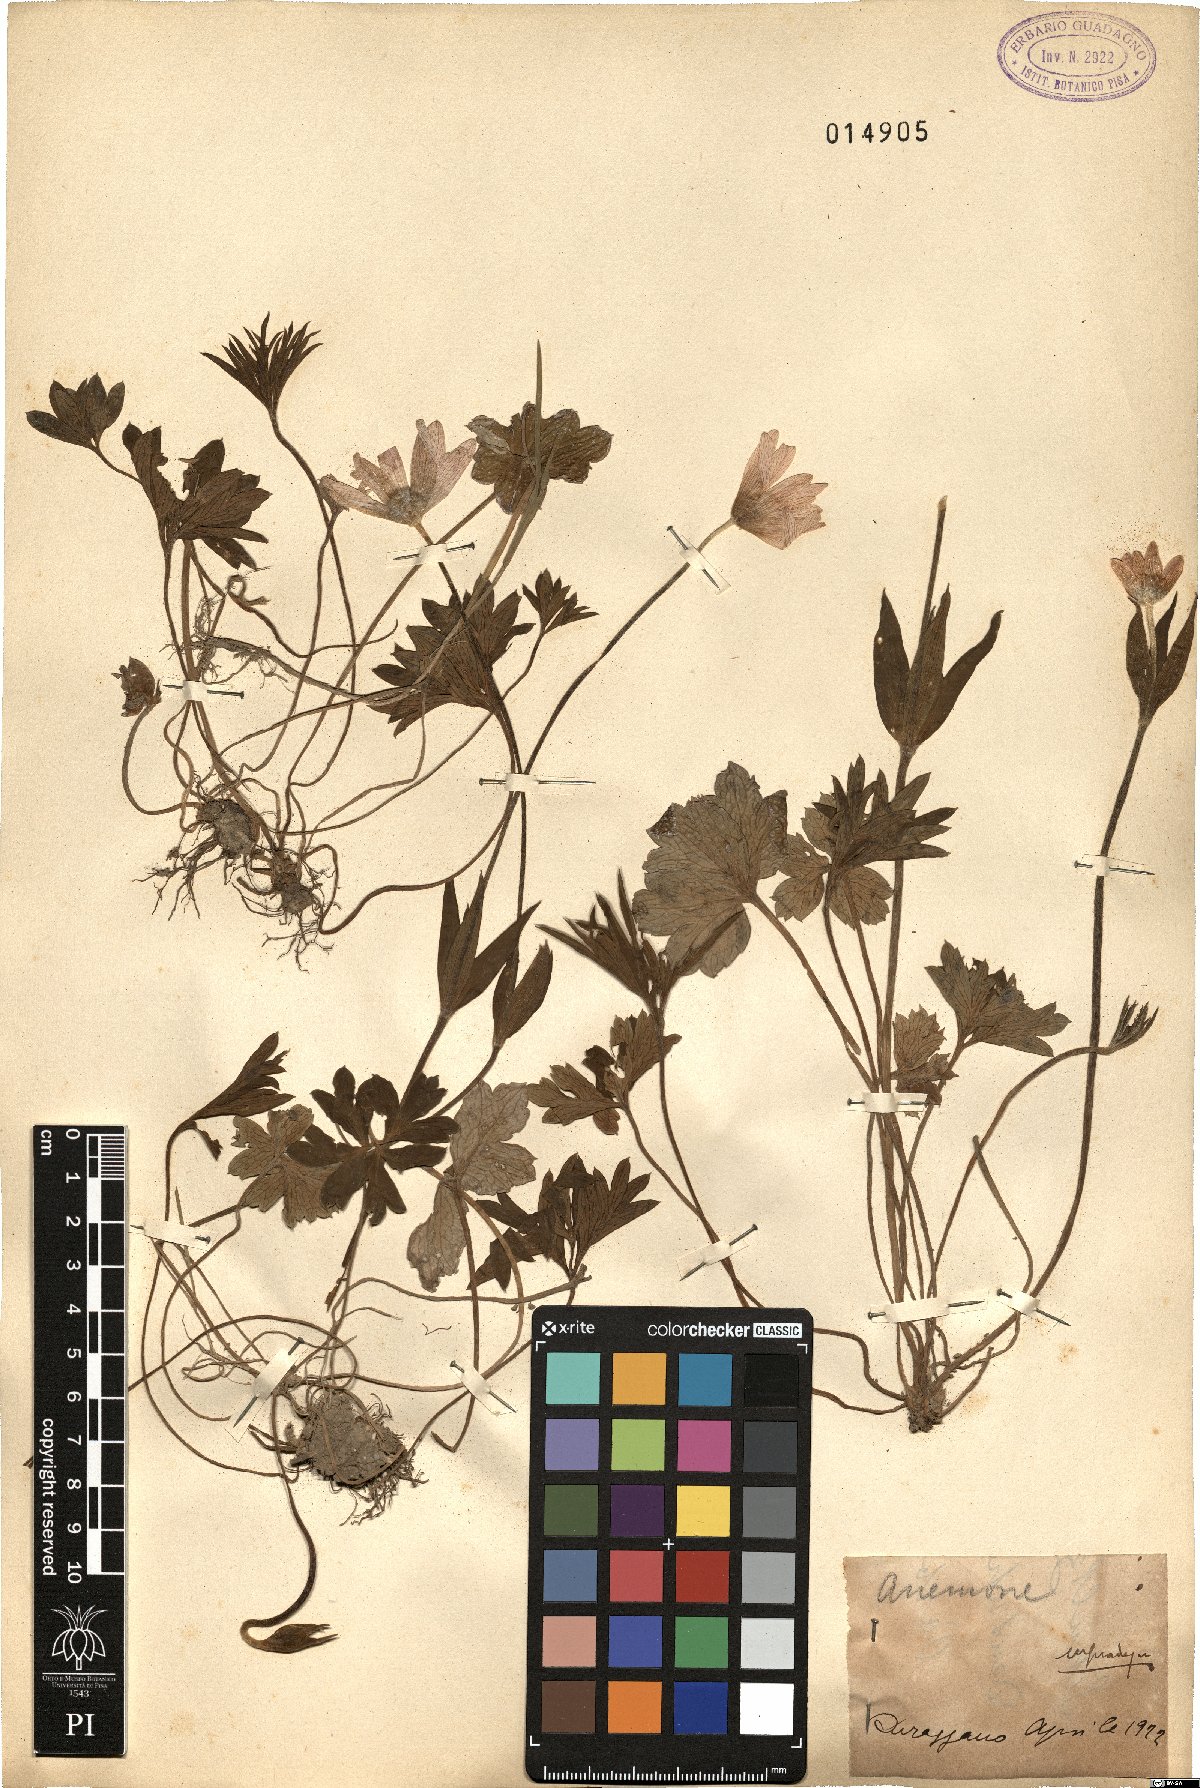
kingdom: Plantae
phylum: Tracheophyta
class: Magnoliopsida
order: Ranunculales
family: Ranunculaceae
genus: Anemone
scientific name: Anemone
